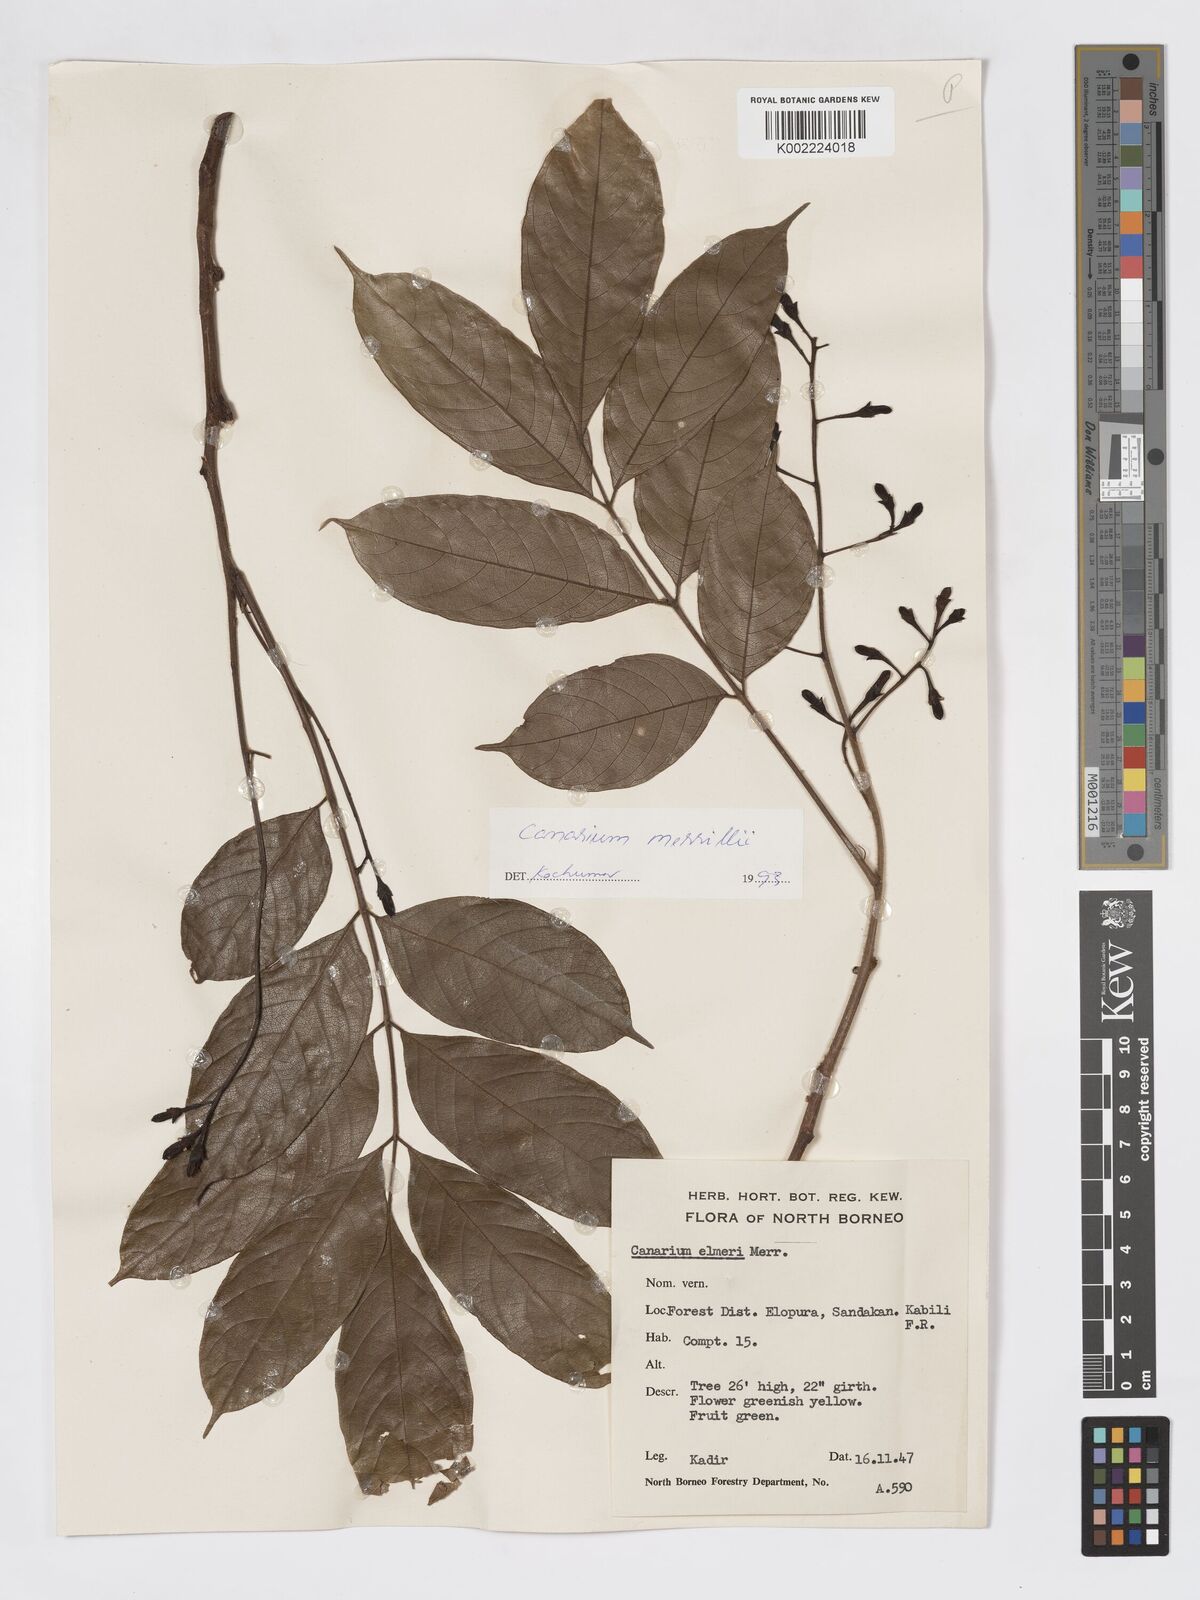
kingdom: Plantae
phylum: Tracheophyta
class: Magnoliopsida
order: Sapindales
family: Burseraceae
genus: Canarium
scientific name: Canarium merrillii
